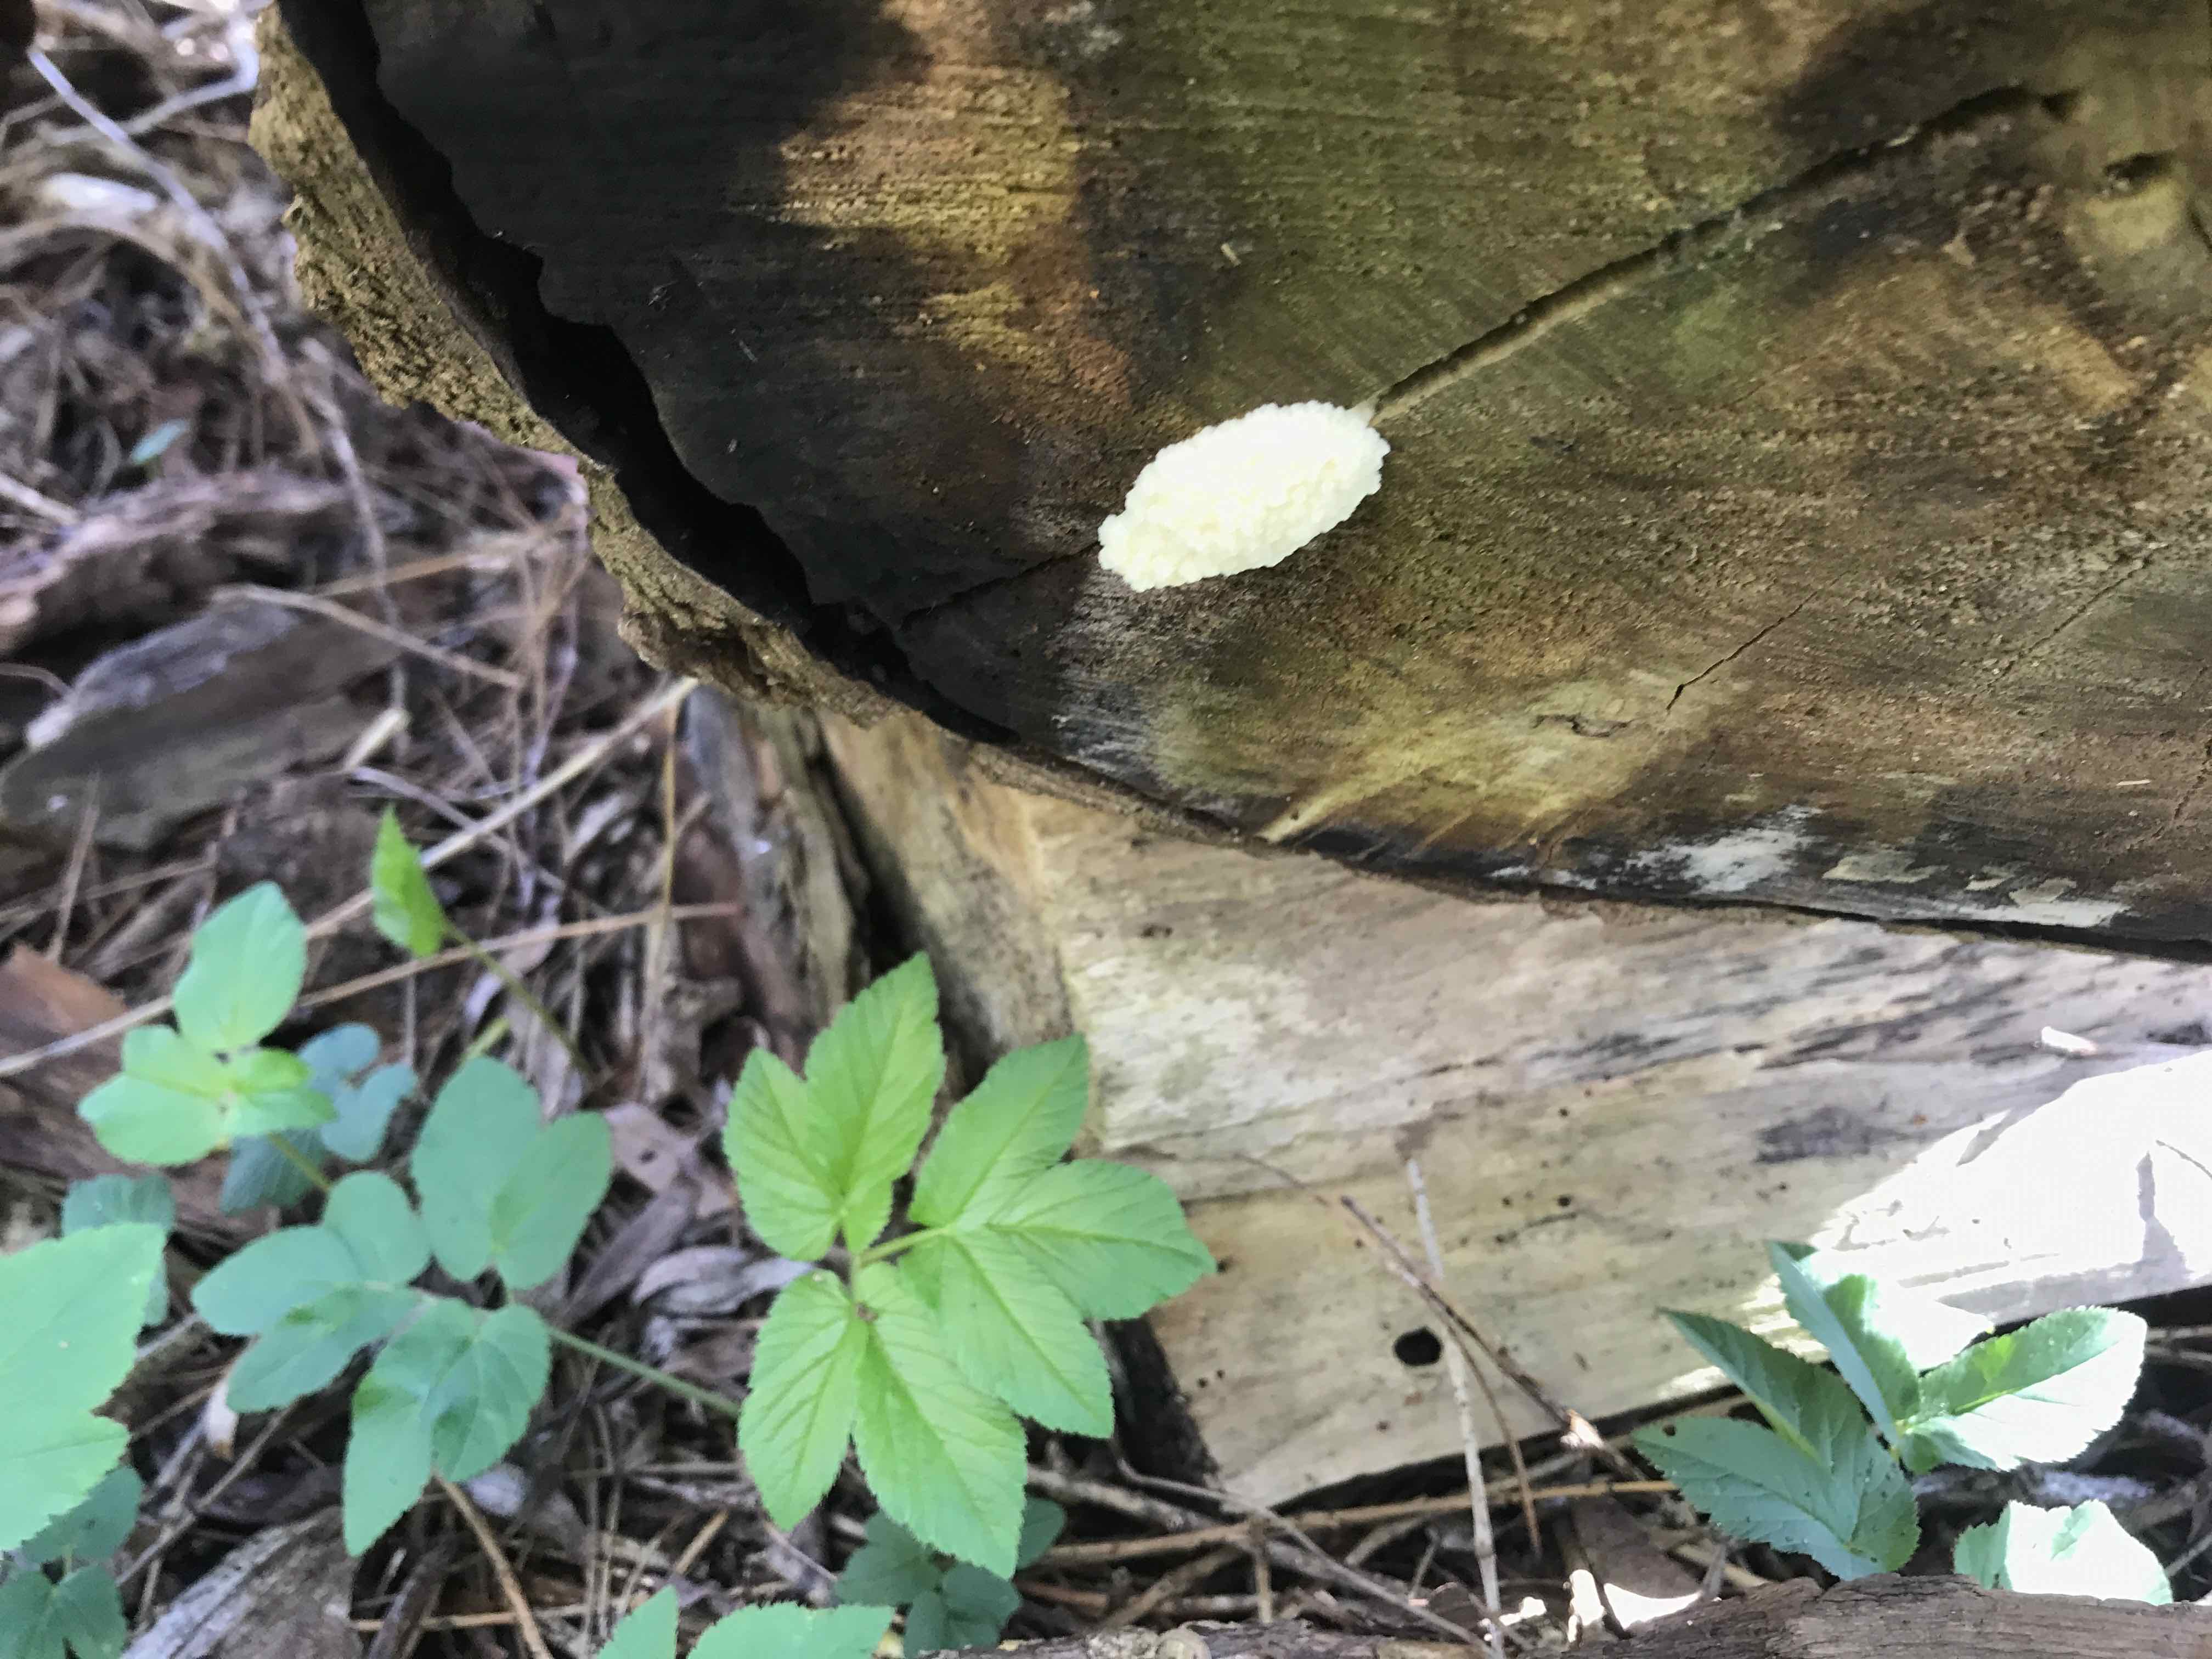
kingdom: Protozoa
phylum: Mycetozoa
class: Myxomycetes
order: Cribrariales
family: Tubiferaceae
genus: Reticularia
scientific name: Reticularia lycoperdon
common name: skinnende støvpude
